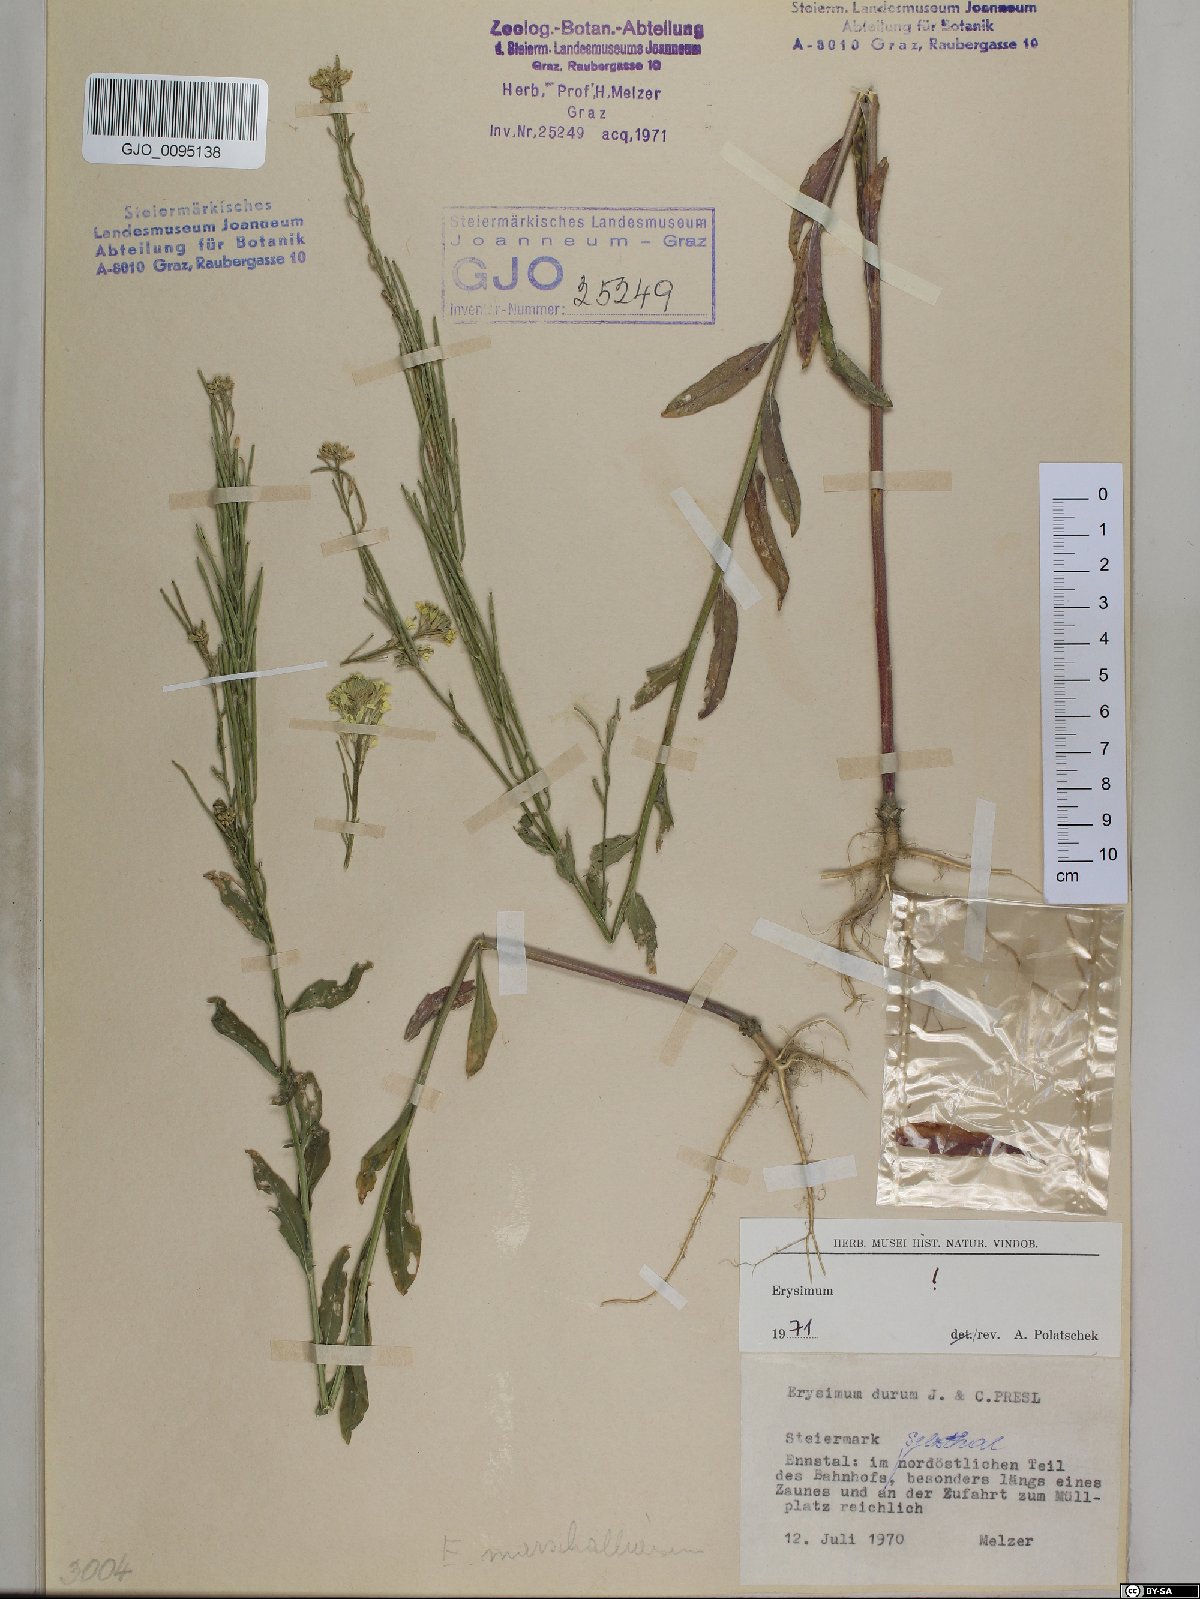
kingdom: Plantae
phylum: Tracheophyta
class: Magnoliopsida
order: Brassicales
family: Brassicaceae
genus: Erysimum
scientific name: Erysimum marschallianum
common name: Hard wallflower
